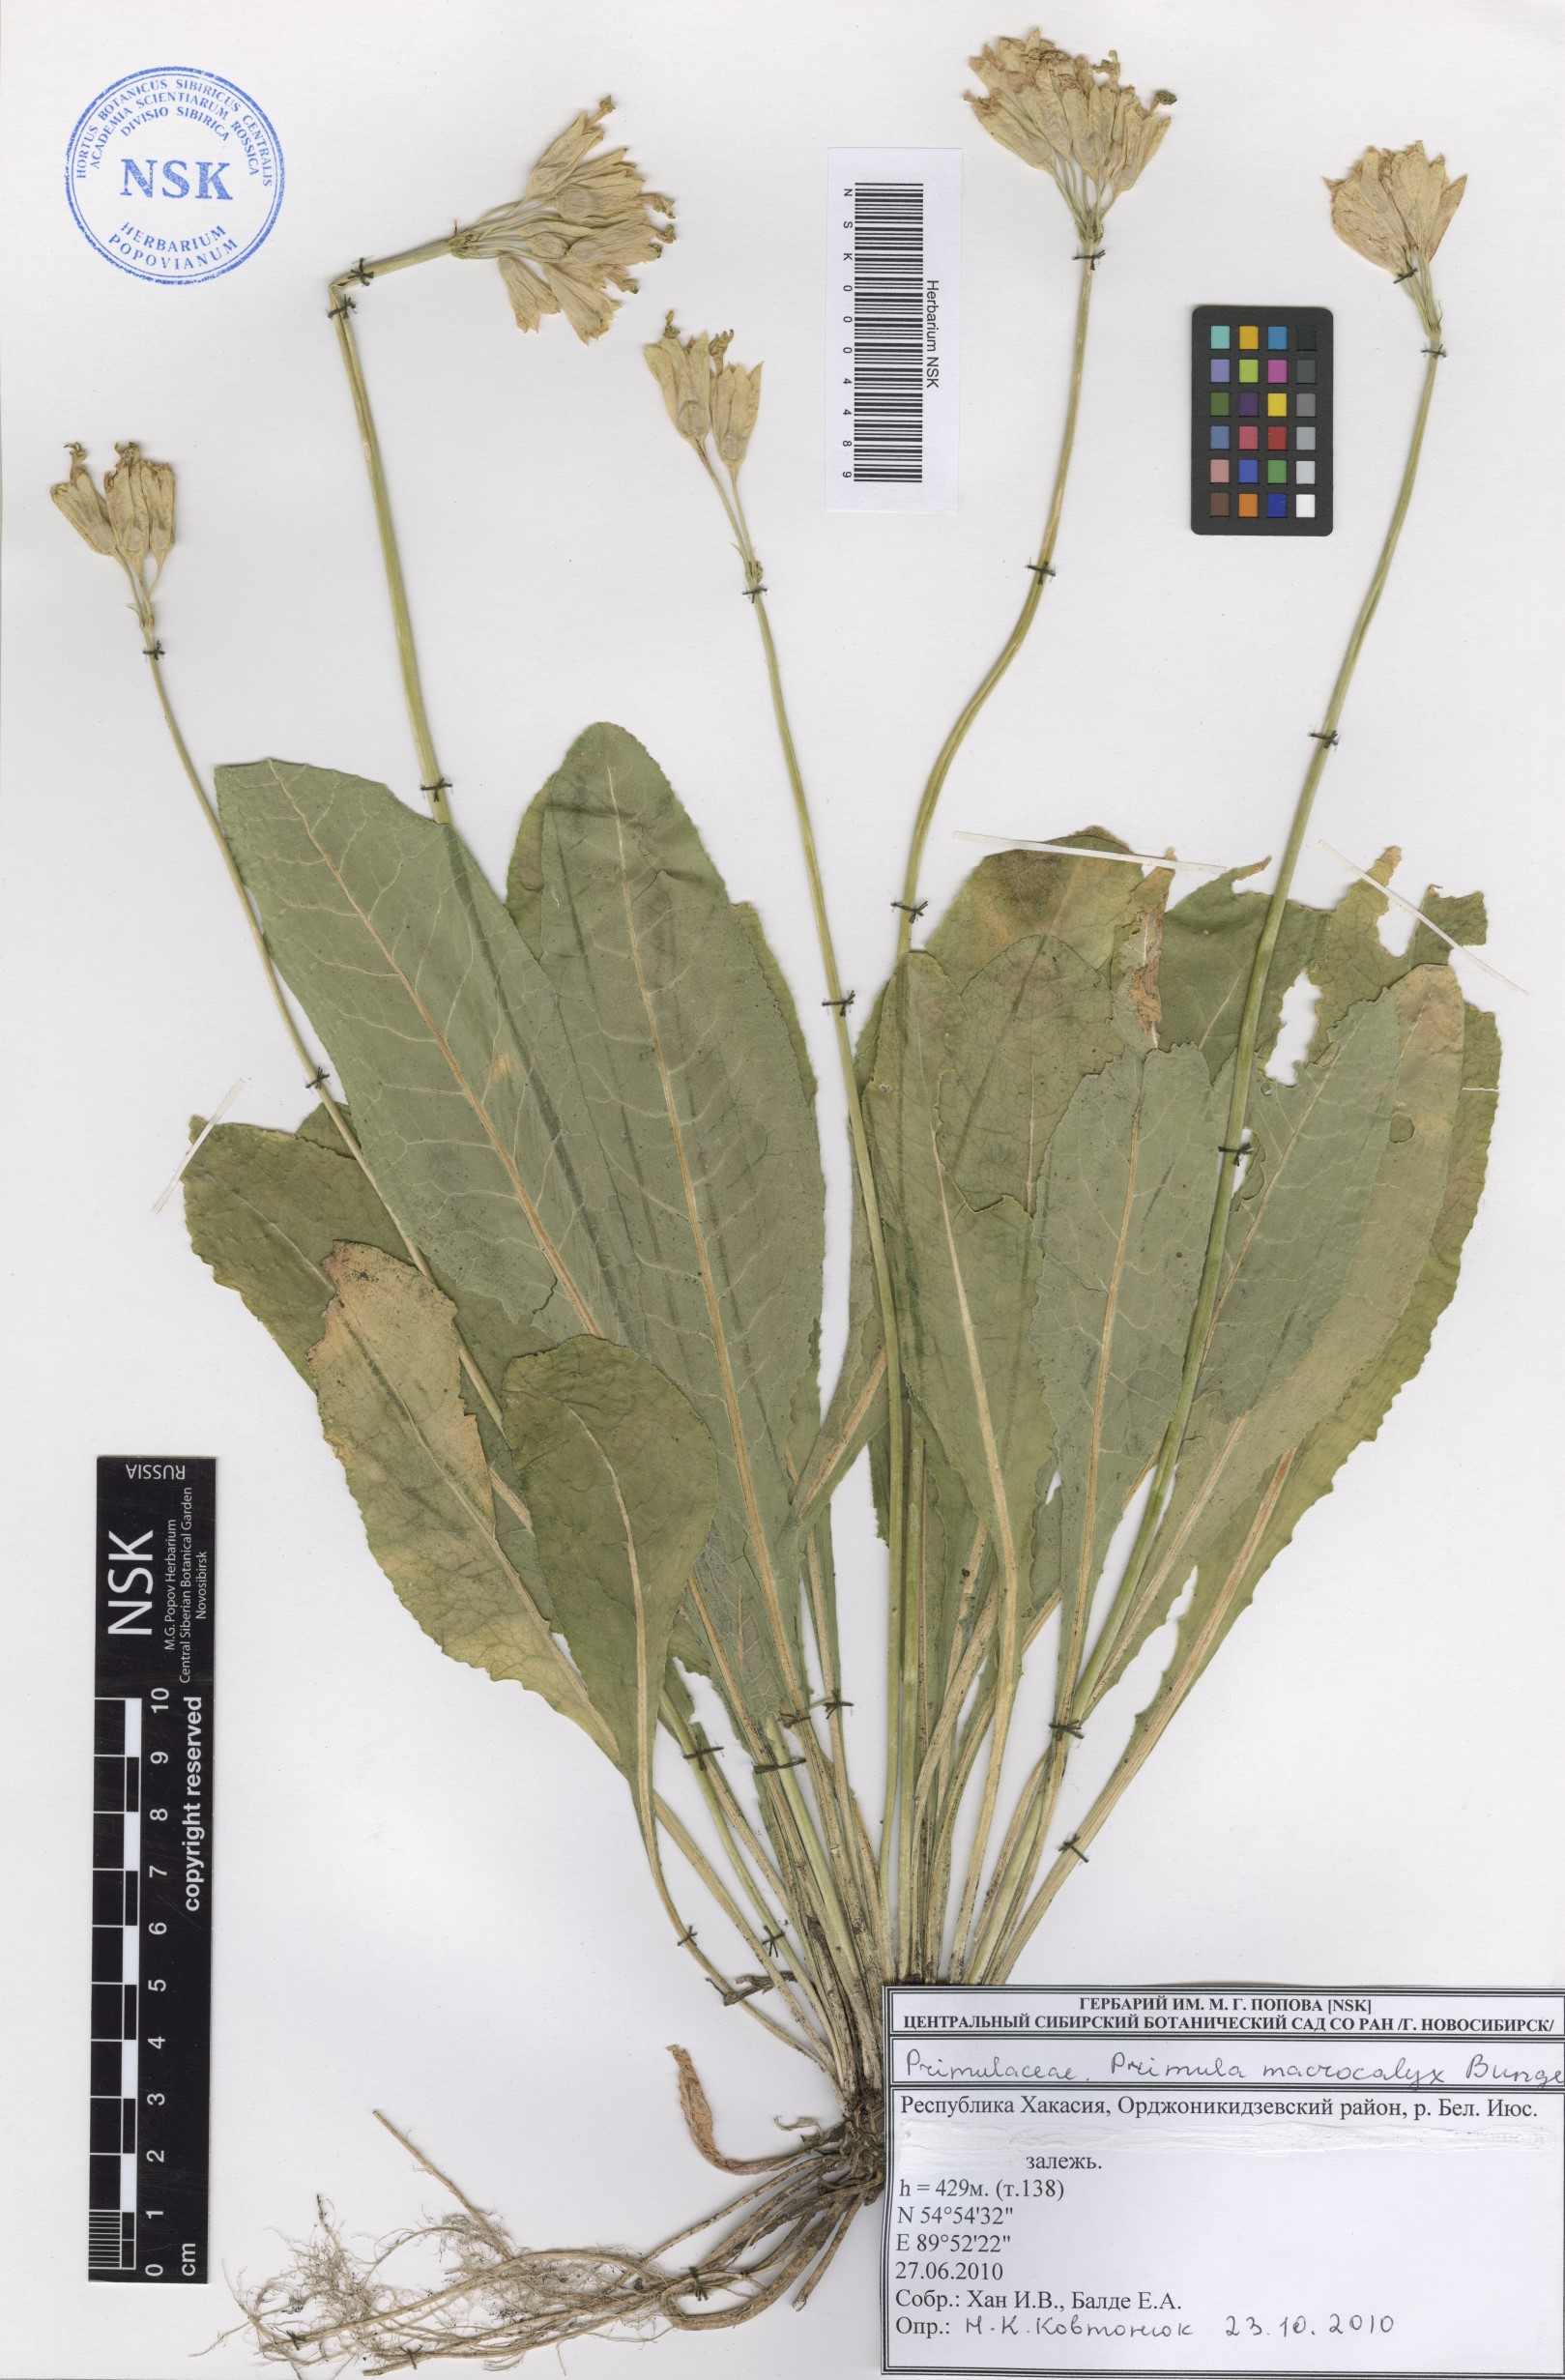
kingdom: Plantae
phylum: Tracheophyta
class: Magnoliopsida
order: Ericales
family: Primulaceae
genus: Primula
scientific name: Primula veris
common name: Cowslip
